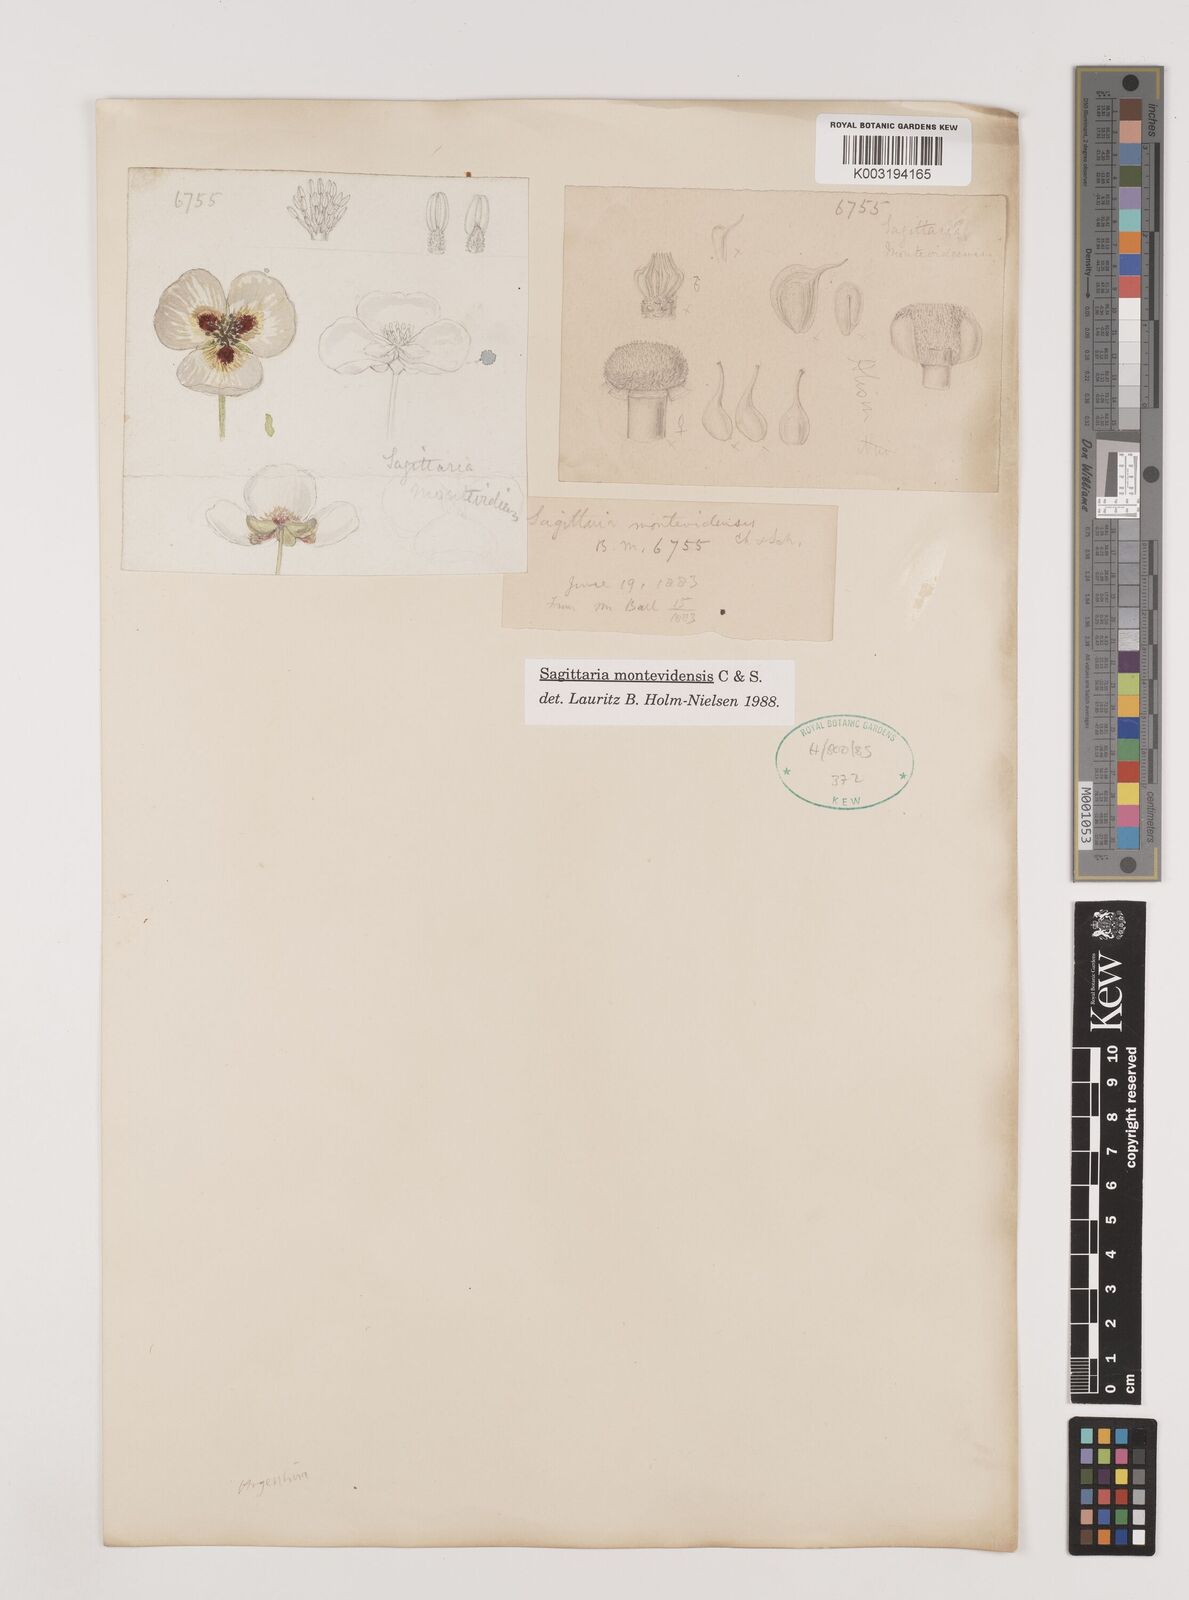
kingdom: Plantae
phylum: Tracheophyta
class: Liliopsida
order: Alismatales
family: Alismataceae
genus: Sagittaria
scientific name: Sagittaria montevidensis
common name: Giant arrowhead
